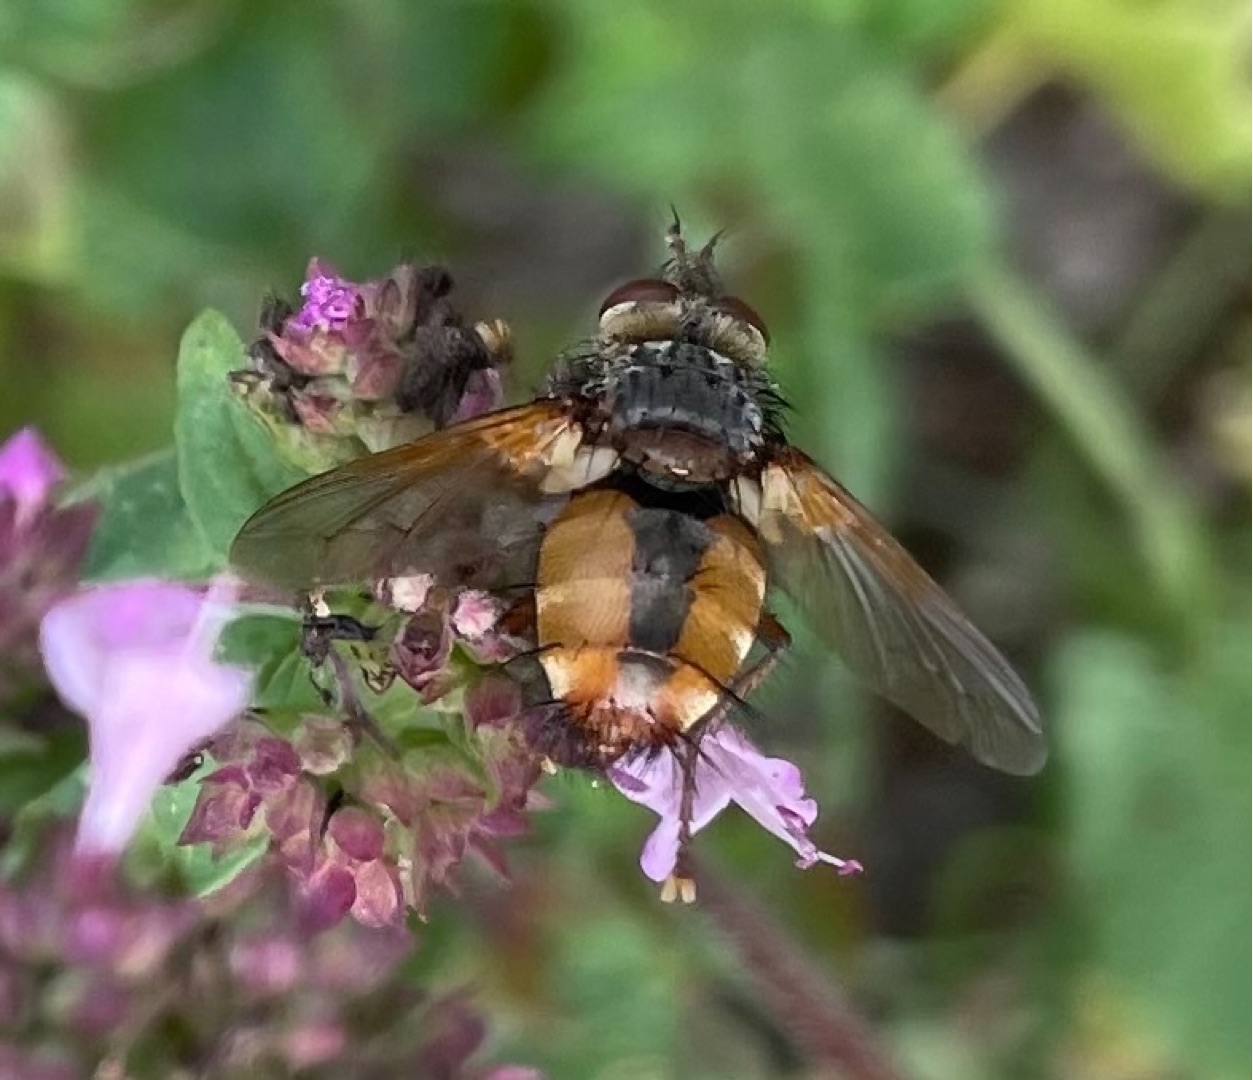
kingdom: Animalia
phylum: Arthropoda
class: Insecta
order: Diptera
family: Tachinidae
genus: Tachina
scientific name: Tachina fera
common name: Mellemfluen oskar
